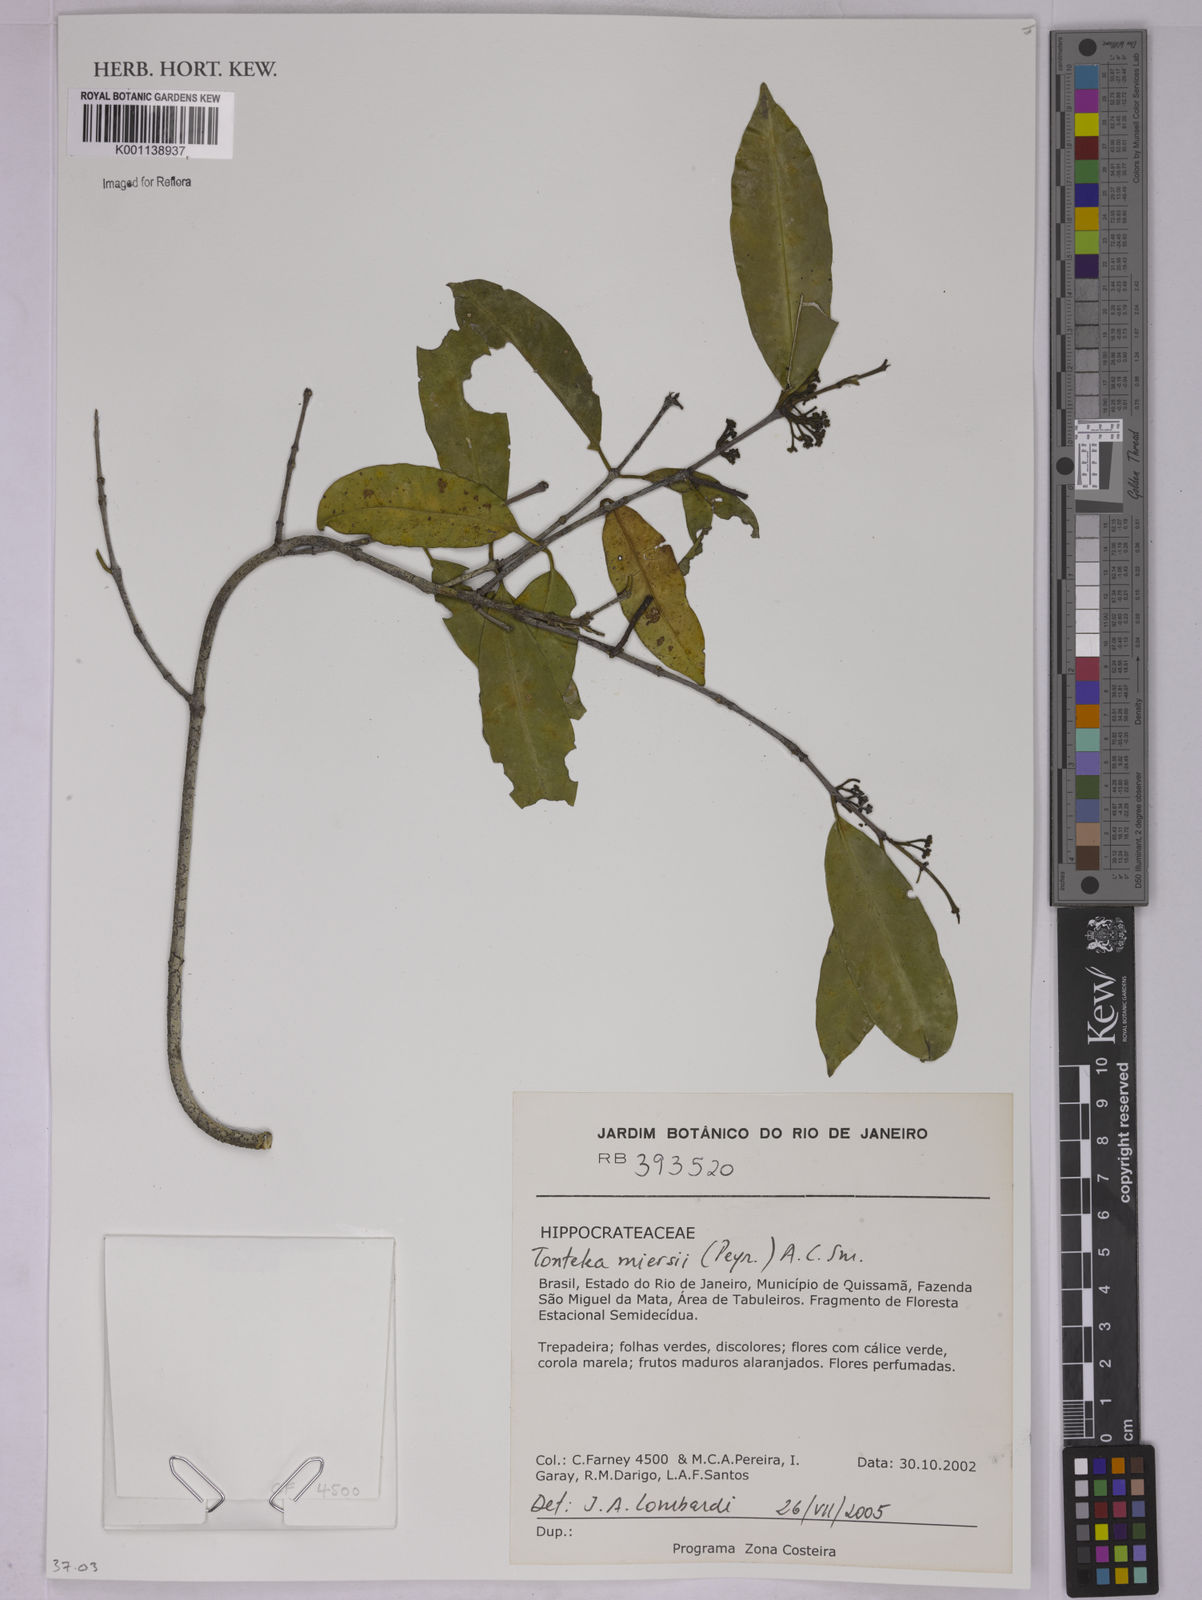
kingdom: Plantae
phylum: Tracheophyta
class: Magnoliopsida
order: Celastrales
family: Celastraceae
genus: Tontelea
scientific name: Tontelea miersii
